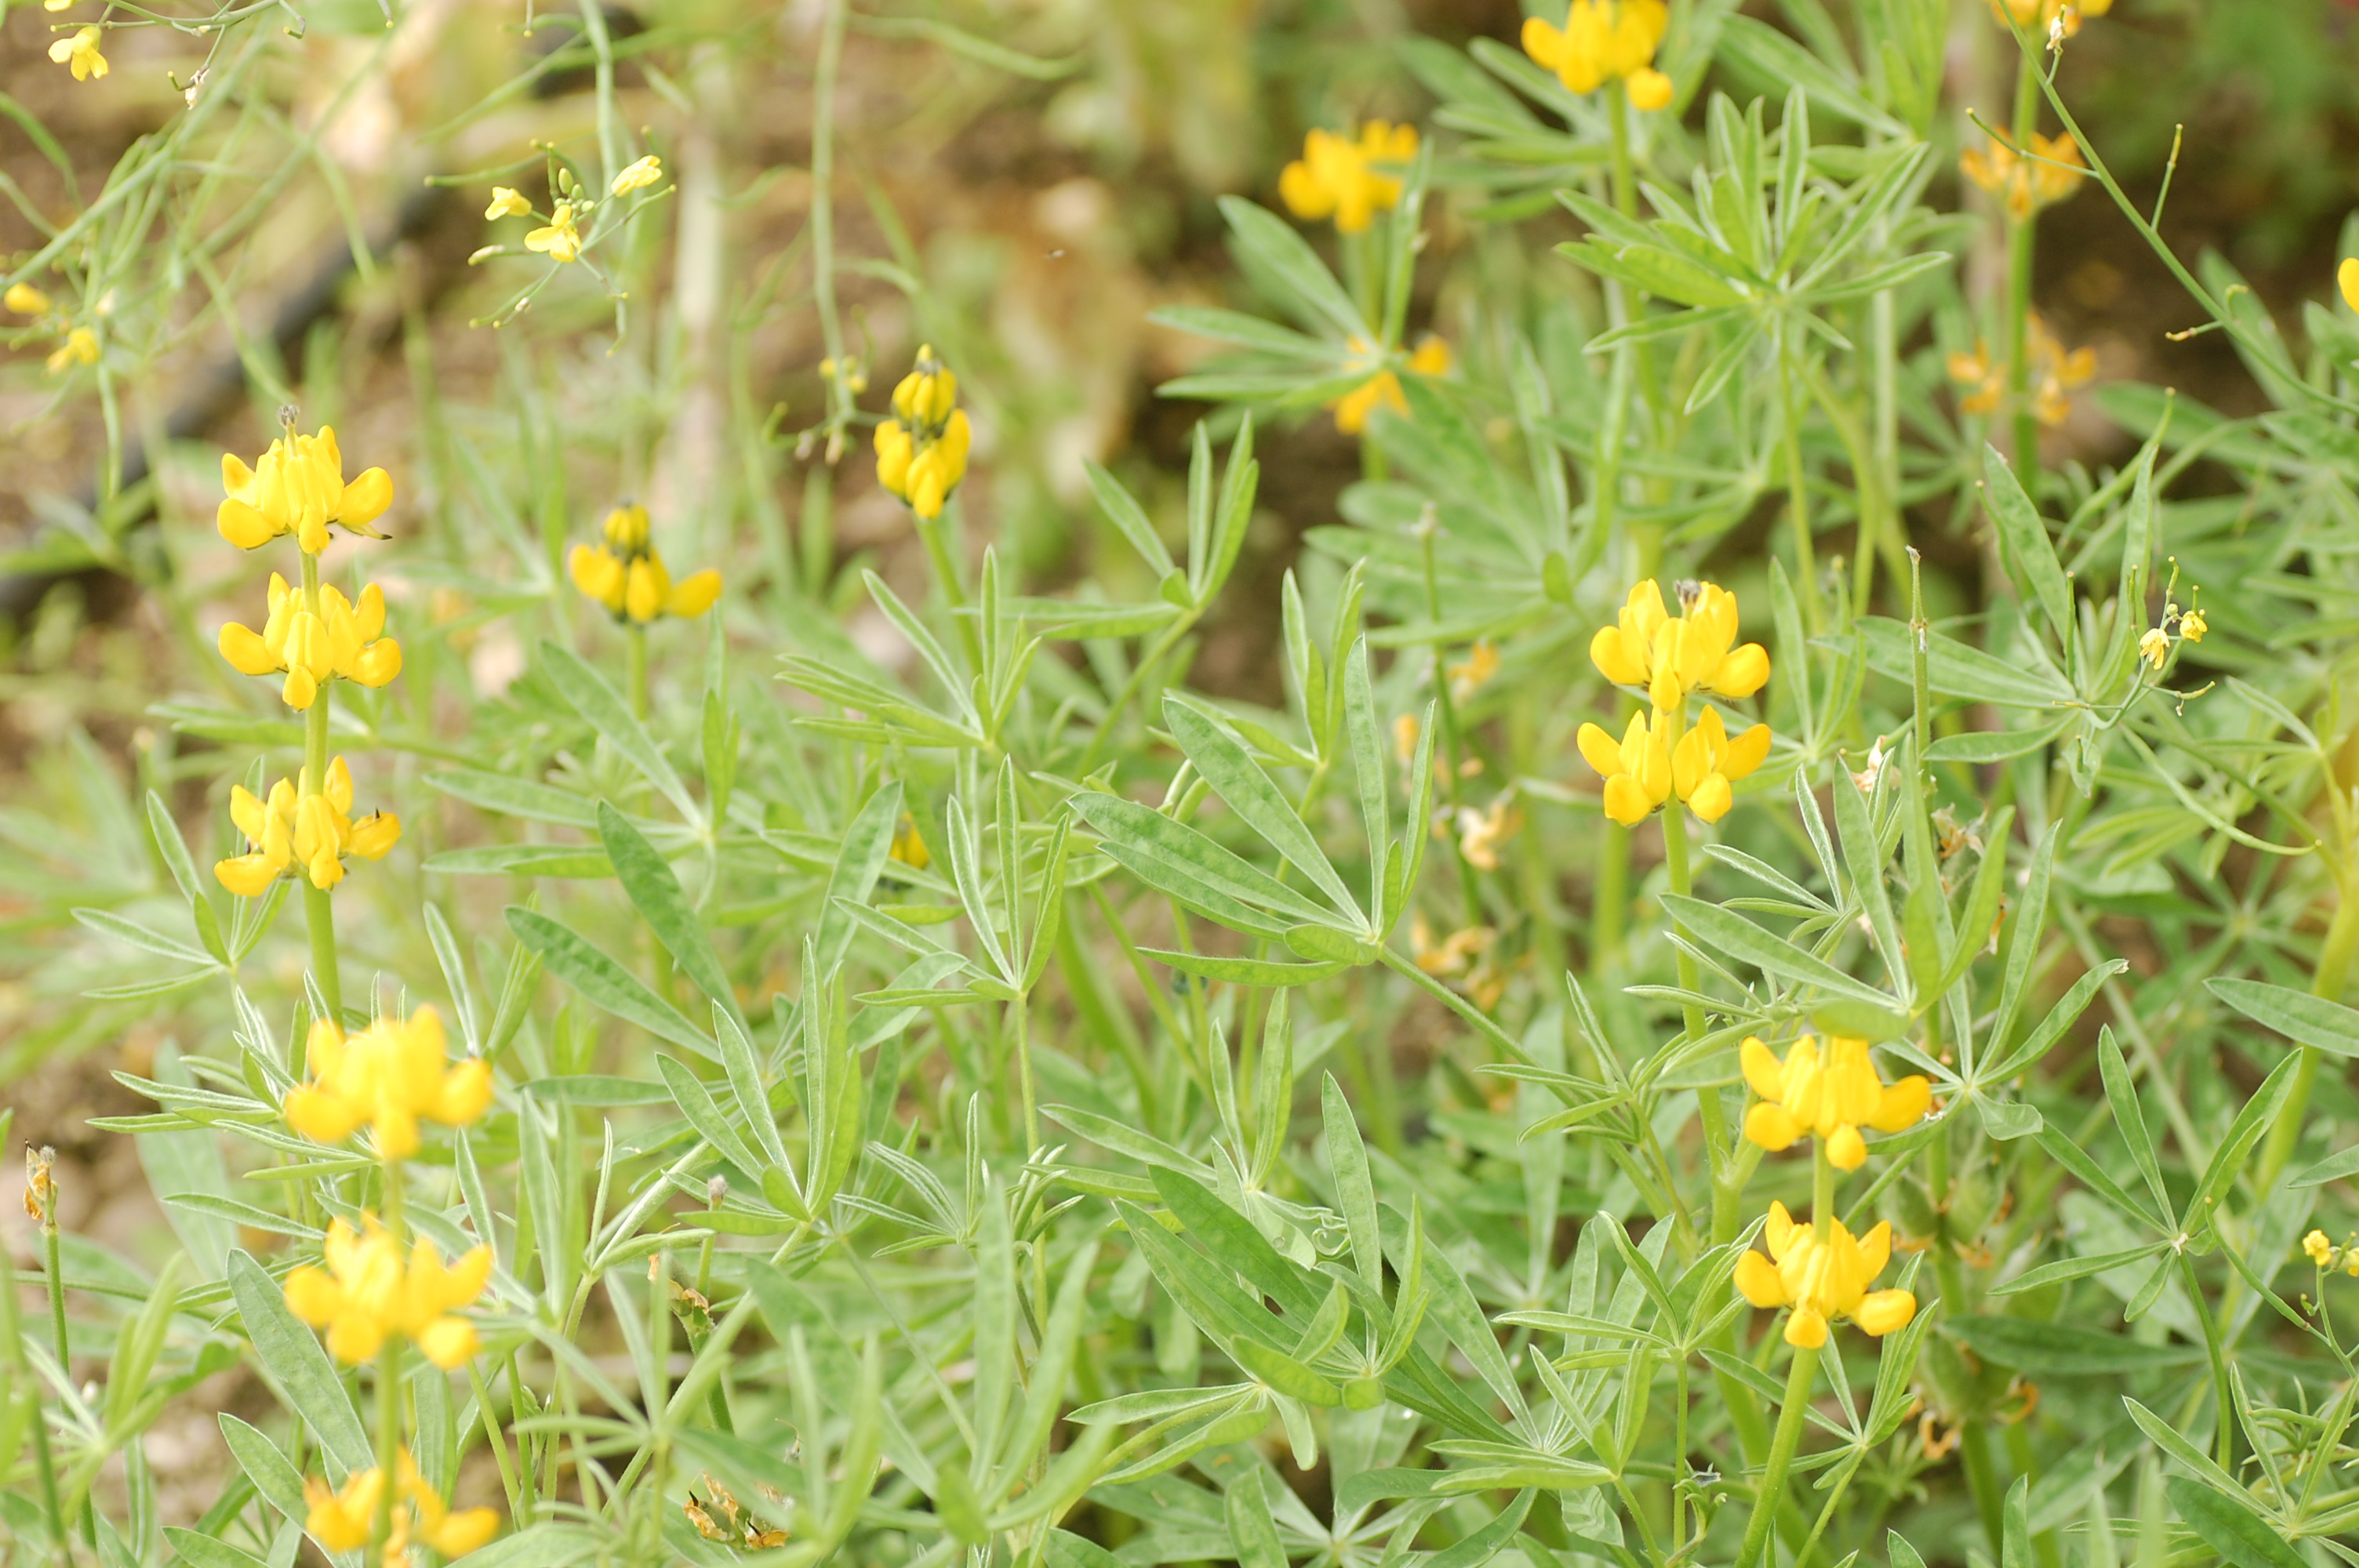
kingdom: Plantae
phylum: Tracheophyta
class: Magnoliopsida
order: Fabales
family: Fabaceae
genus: Lupinus
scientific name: Lupinus luteus
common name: European yellow lupine
